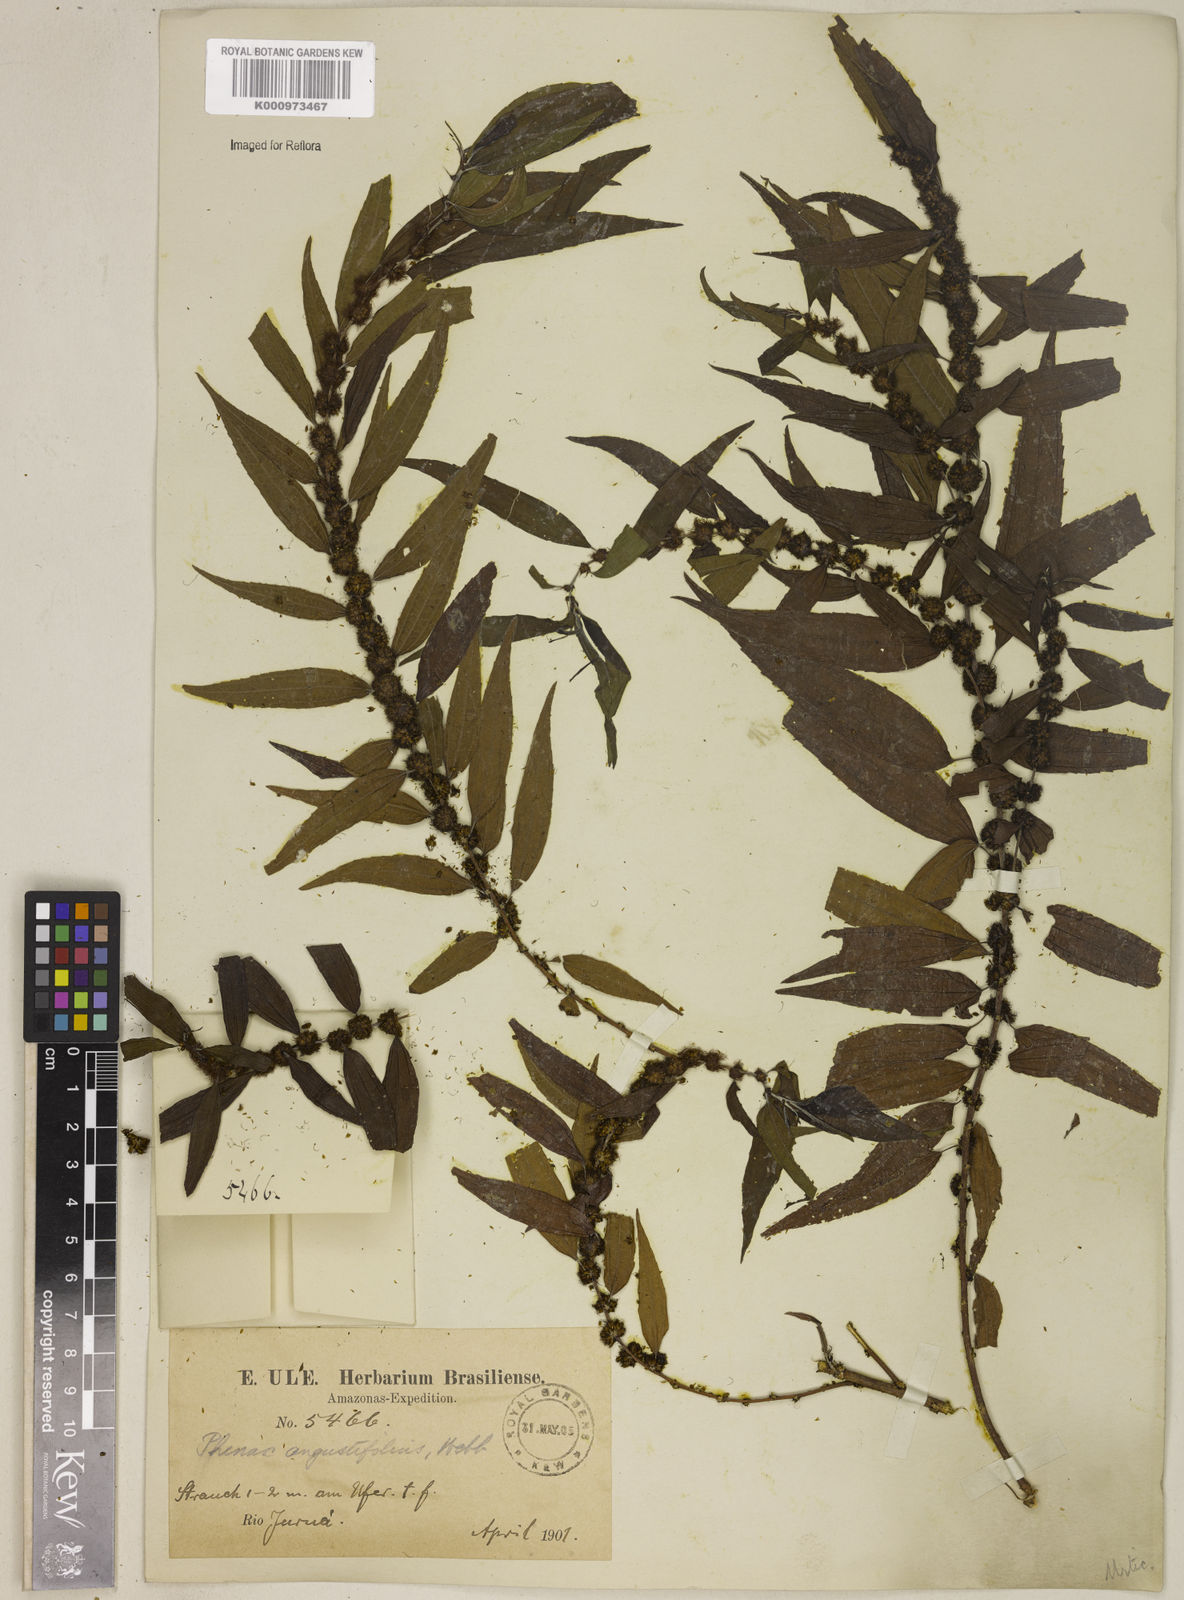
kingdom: Plantae
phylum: Tracheophyta
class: Magnoliopsida
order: Rosales
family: Urticaceae
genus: Phenax
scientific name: Phenax angustifolius
